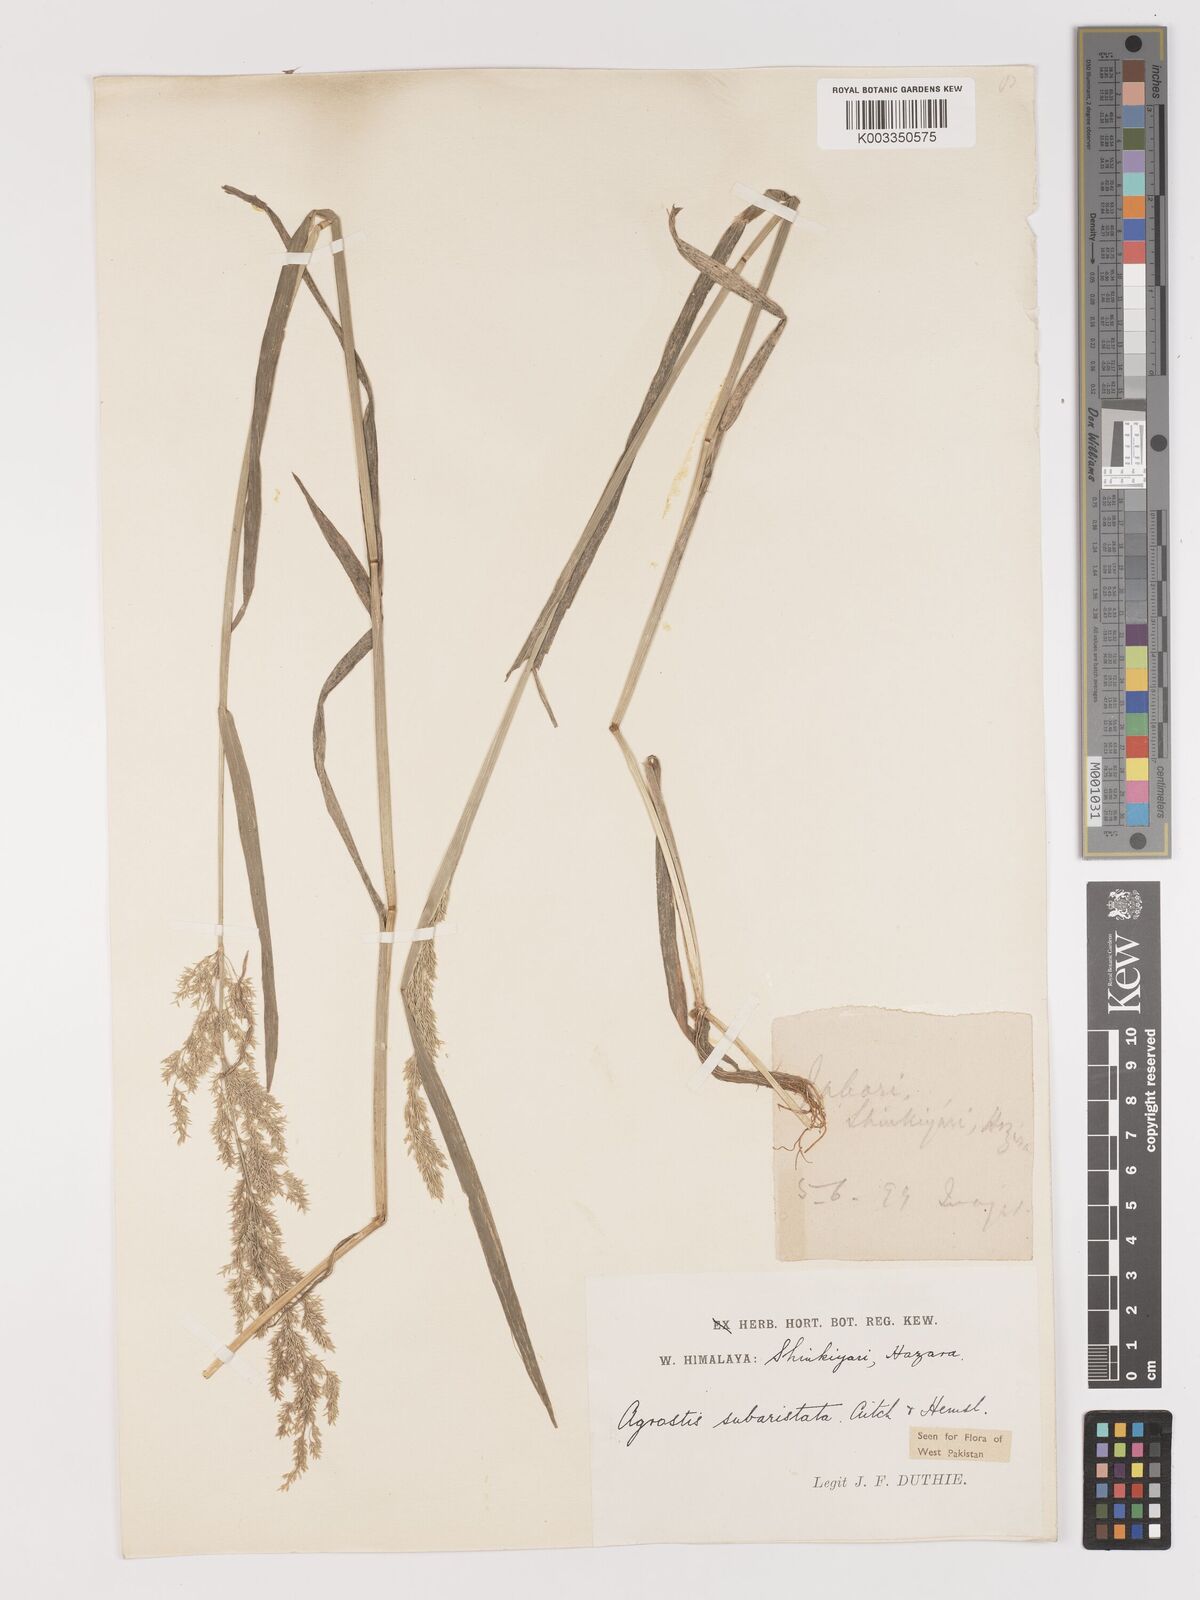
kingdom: Plantae
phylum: Tracheophyta
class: Liliopsida
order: Poales
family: Poaceae
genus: Agropogon
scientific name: Agropogon lutosus
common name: Coast agropogon
